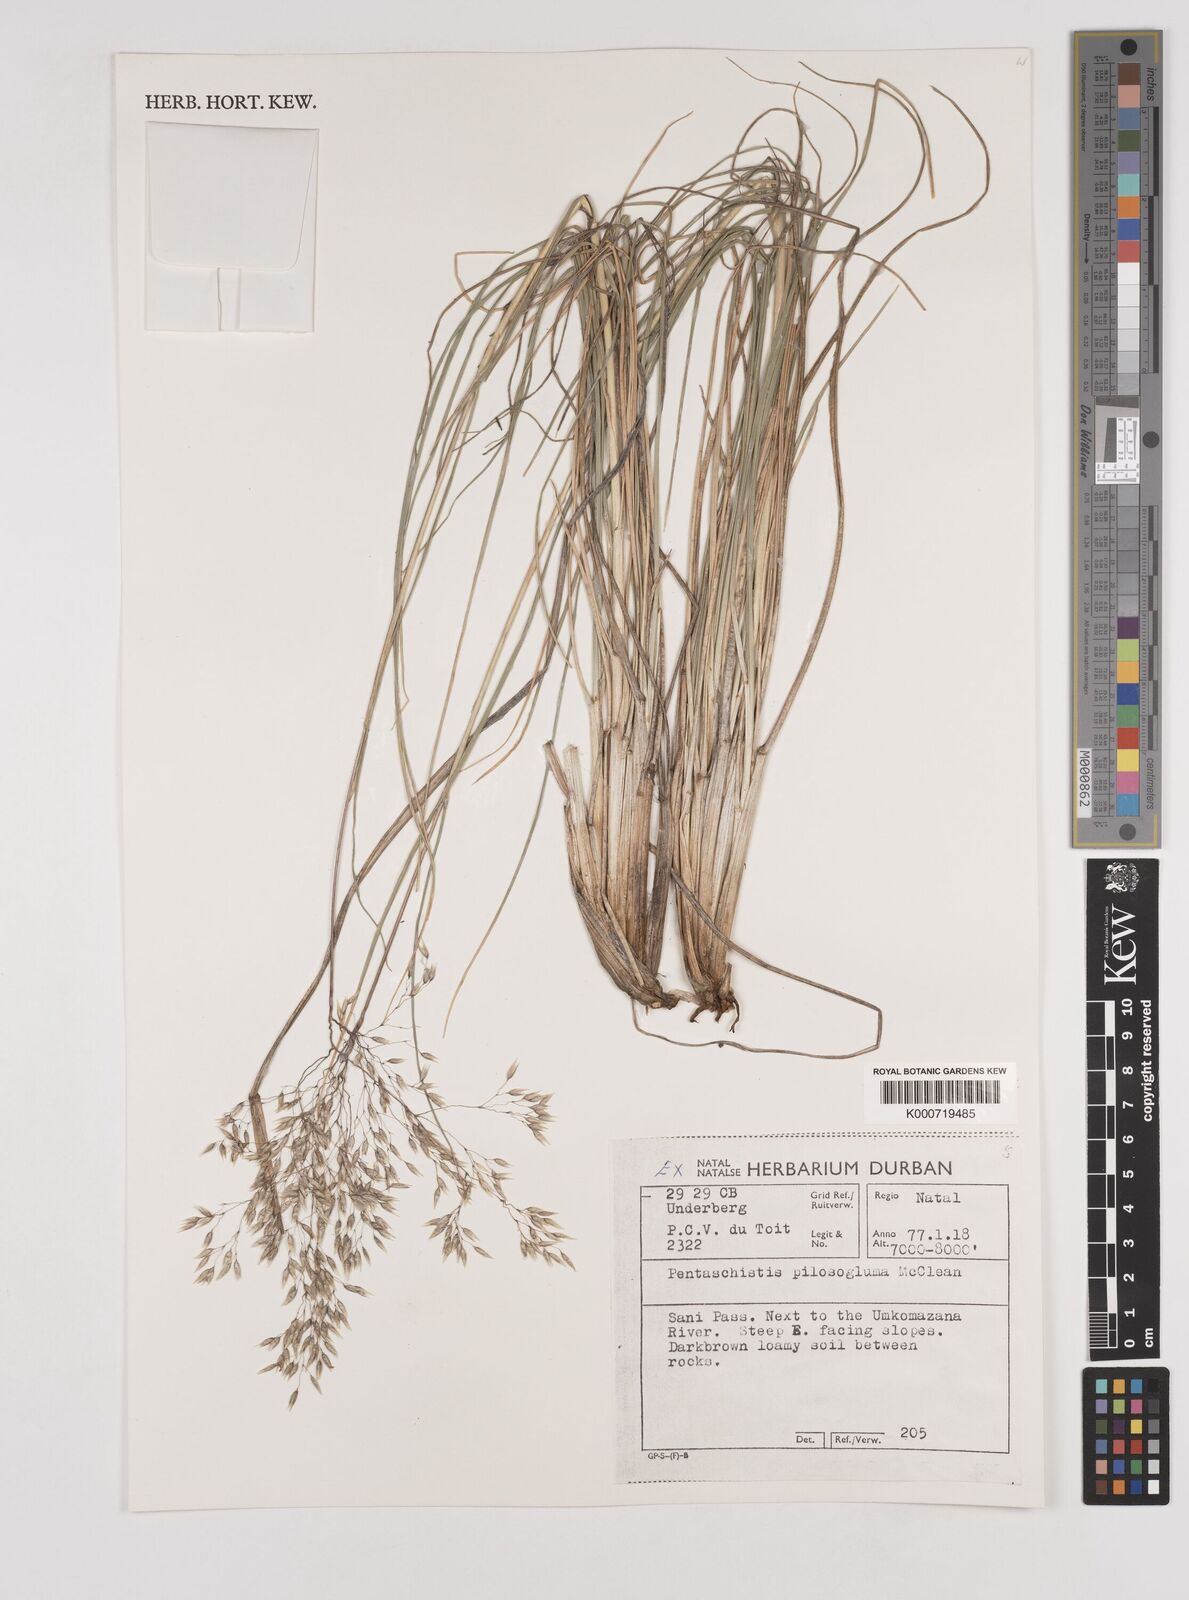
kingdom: Plantae
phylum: Tracheophyta
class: Liliopsida
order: Poales
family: Poaceae
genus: Pentameris
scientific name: Pentameris aurea
